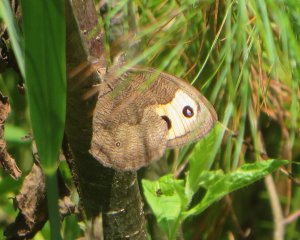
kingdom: Animalia
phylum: Arthropoda
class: Insecta
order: Lepidoptera
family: Nymphalidae
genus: Cercyonis
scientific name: Cercyonis pegala
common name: Common Wood-Nymph
